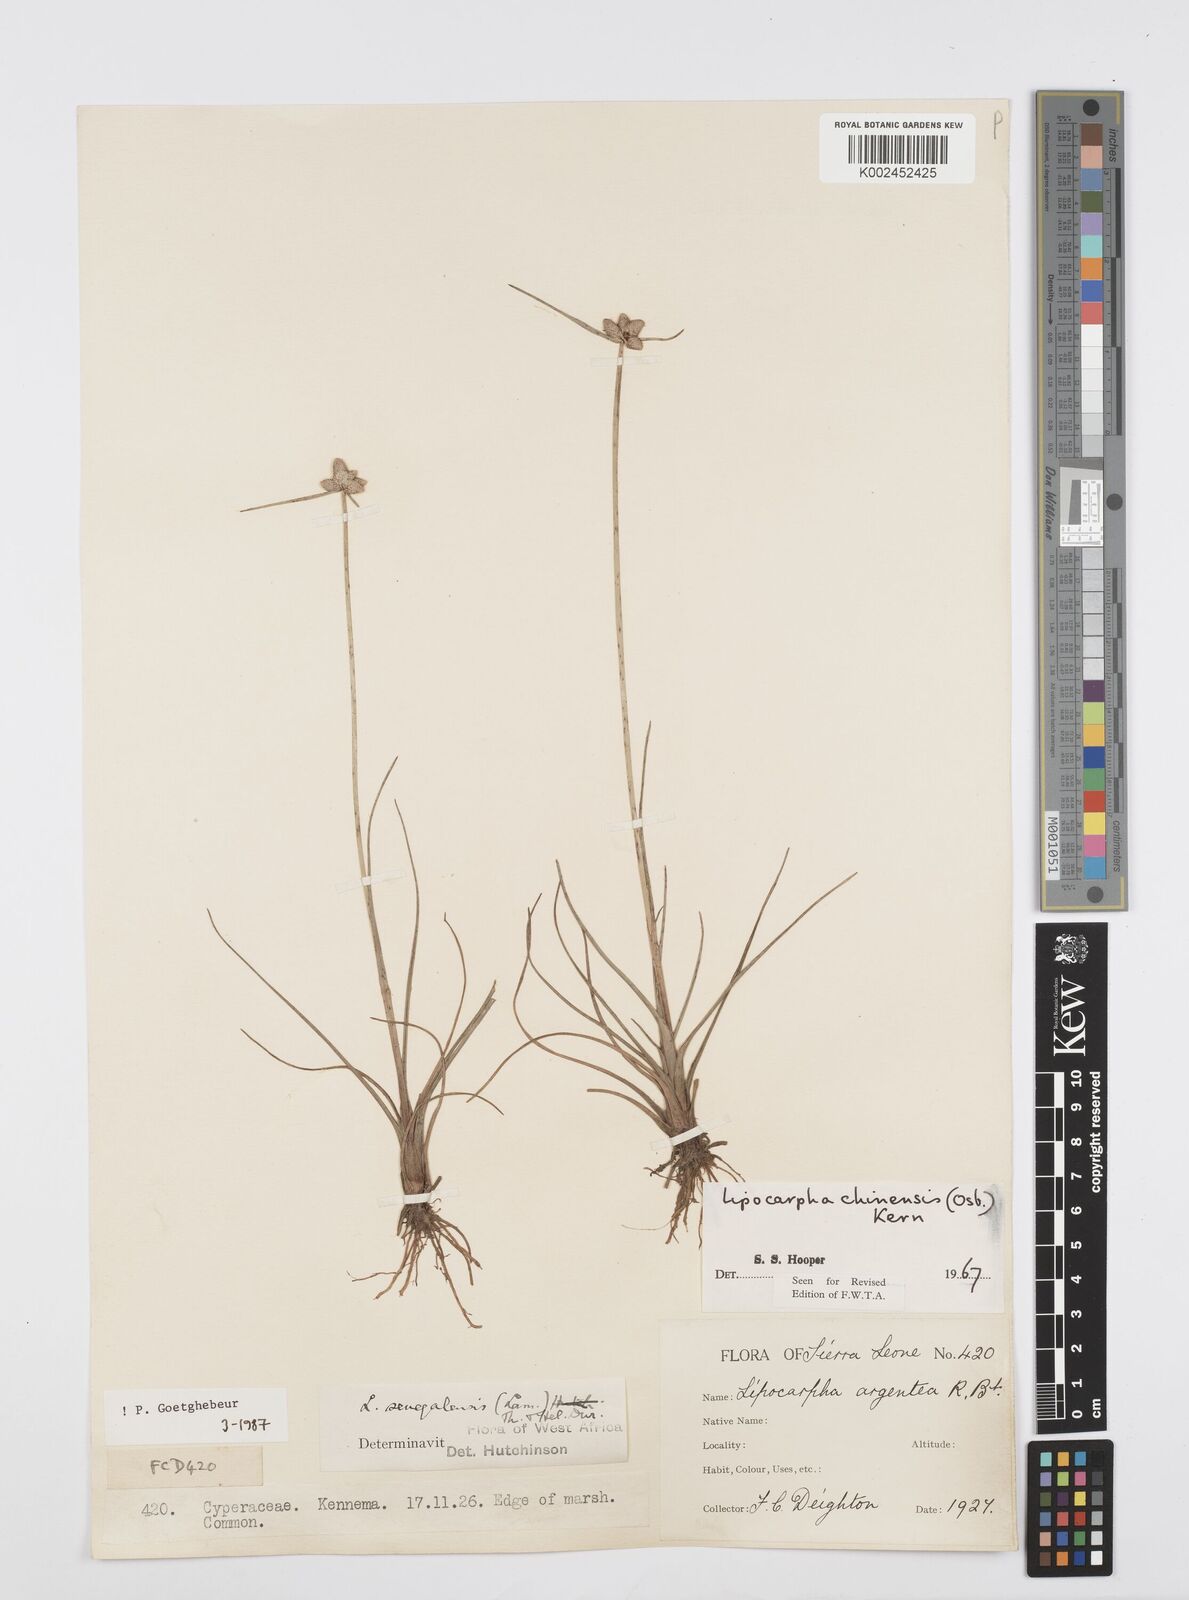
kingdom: Plantae
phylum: Tracheophyta
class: Liliopsida
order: Poales
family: Cyperaceae
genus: Cyperus
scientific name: Cyperus albescens
